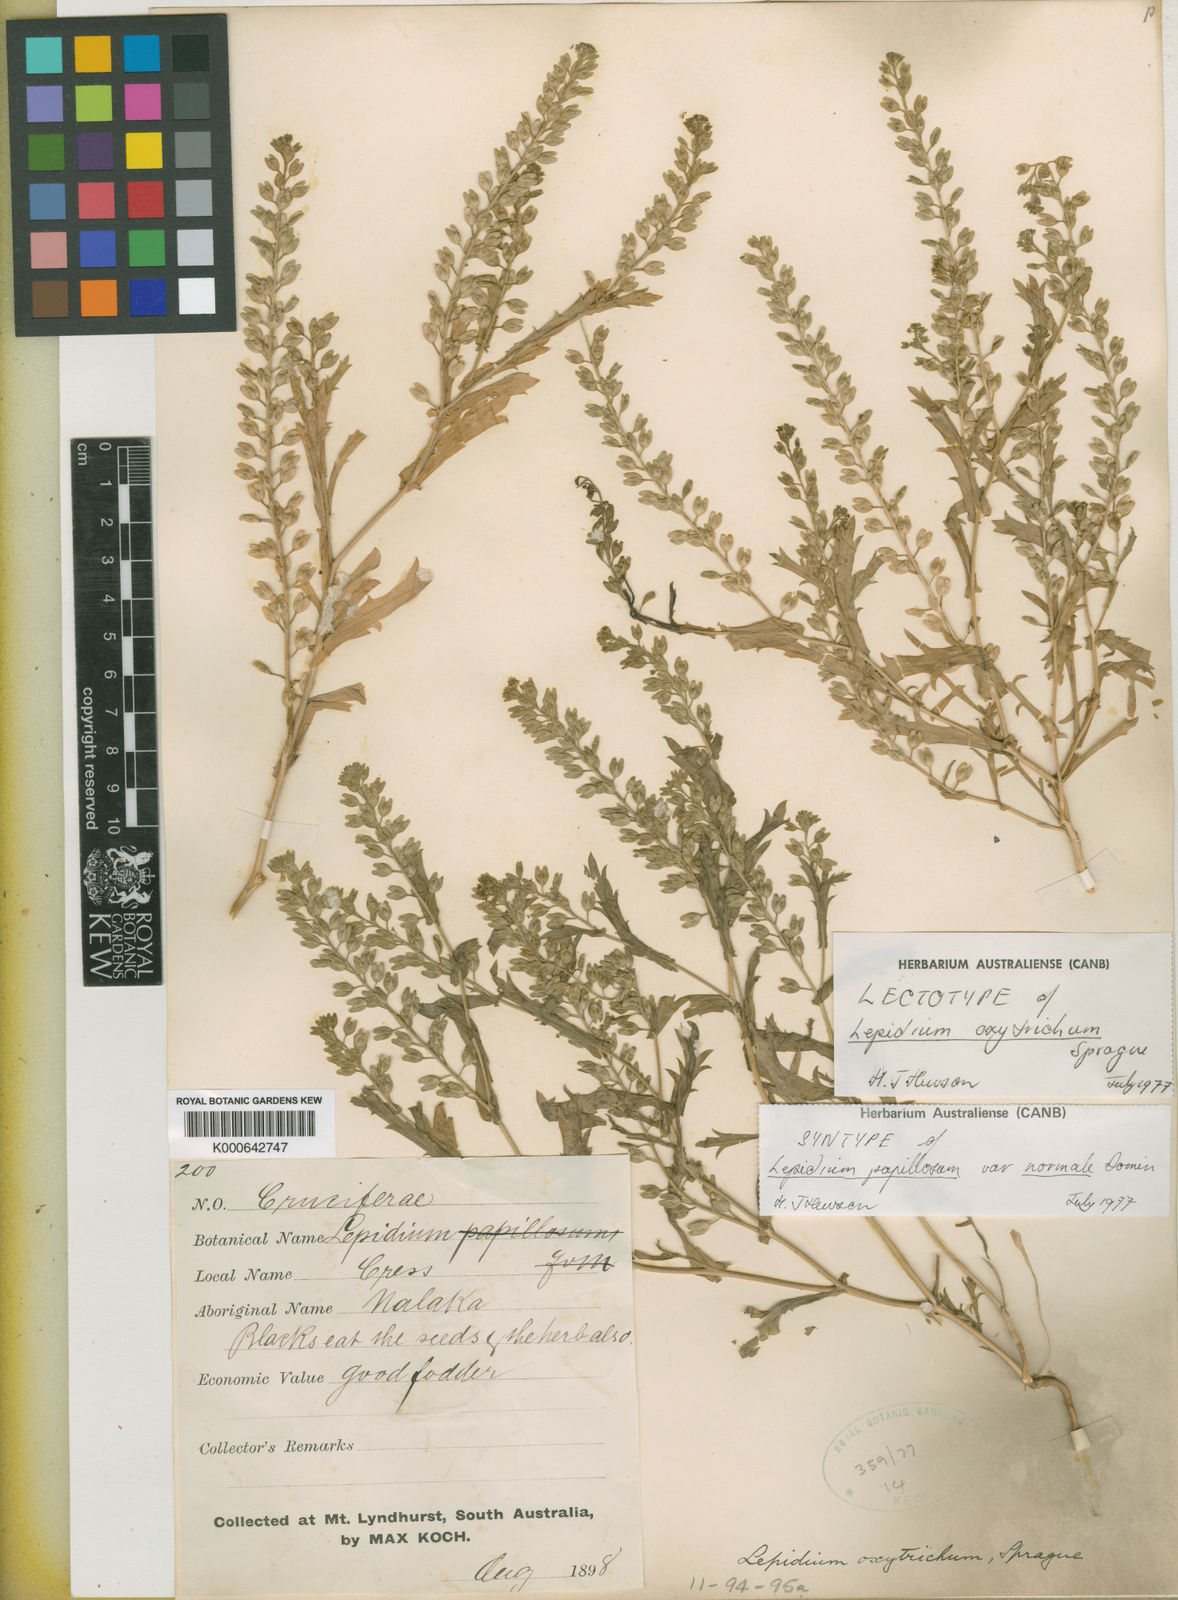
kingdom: Plantae
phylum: Tracheophyta
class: Magnoliopsida
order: Brassicales
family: Brassicaceae
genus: Lepidium
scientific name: Lepidium oxytrichum
